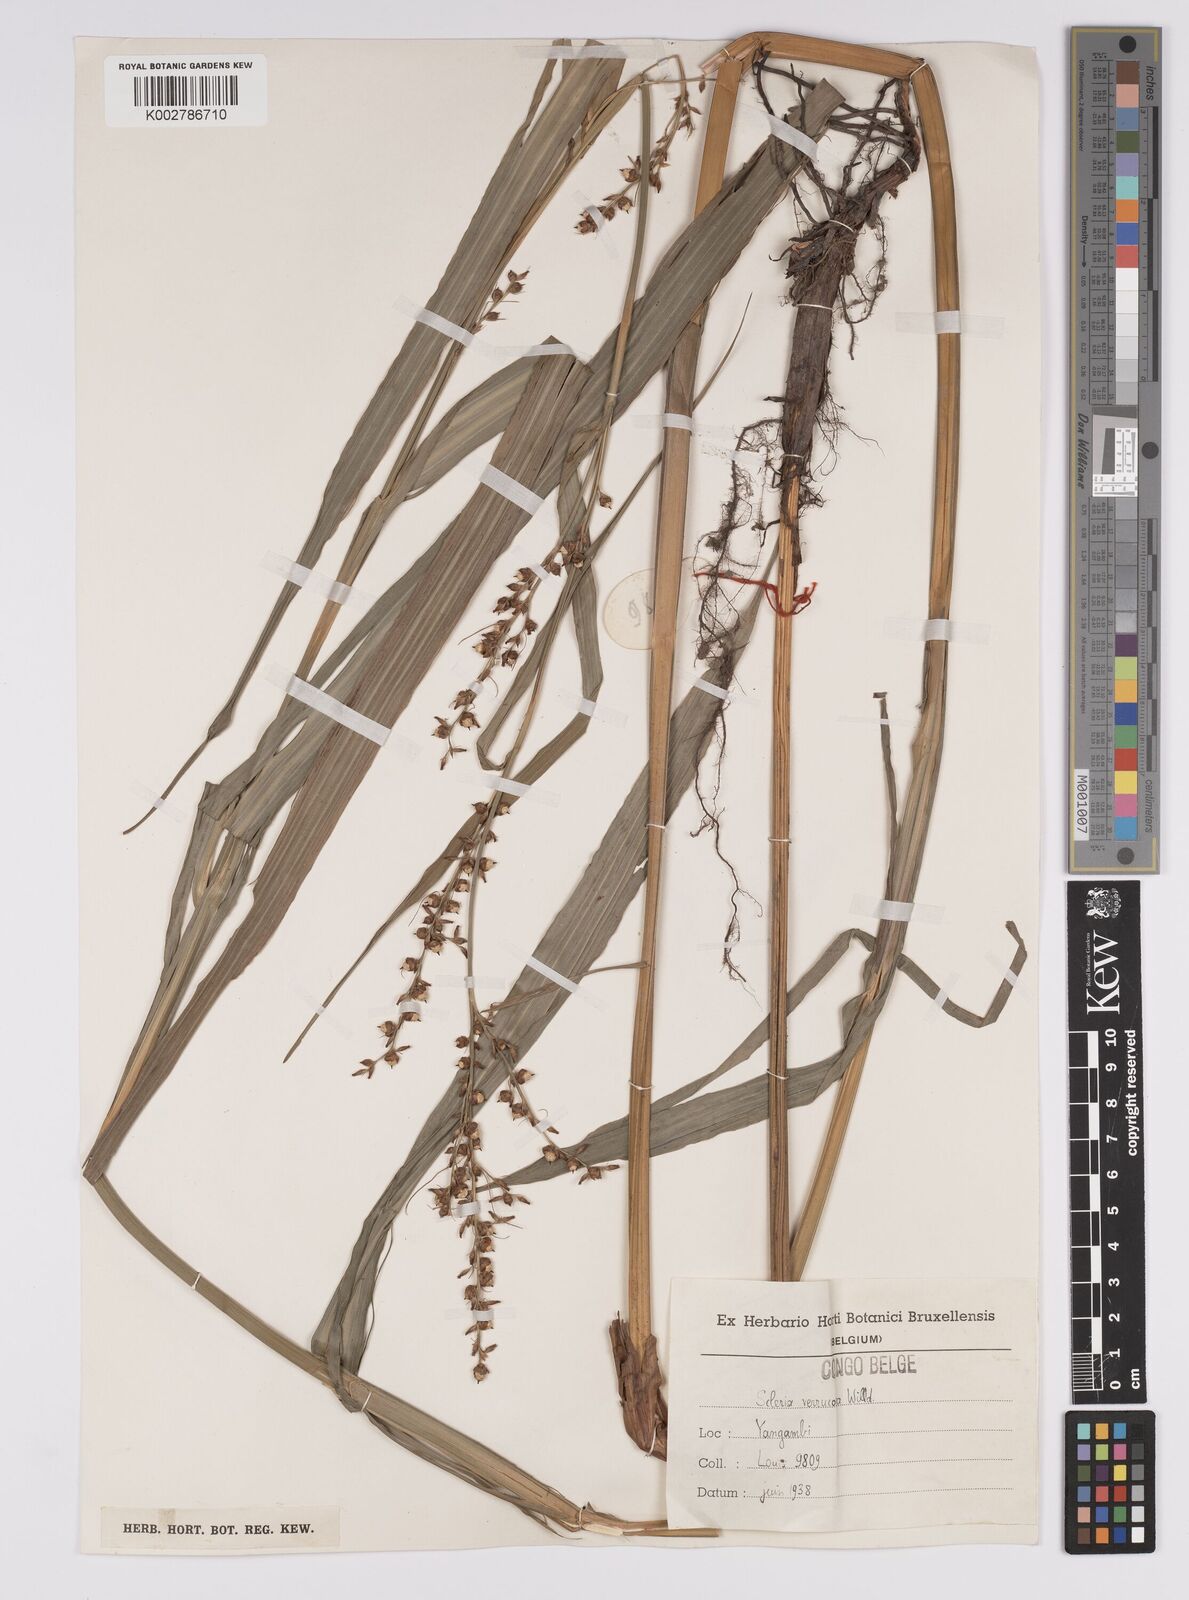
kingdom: Plantae
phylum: Tracheophyta
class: Liliopsida
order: Poales
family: Cyperaceae
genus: Scleria
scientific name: Scleria verrucosa
